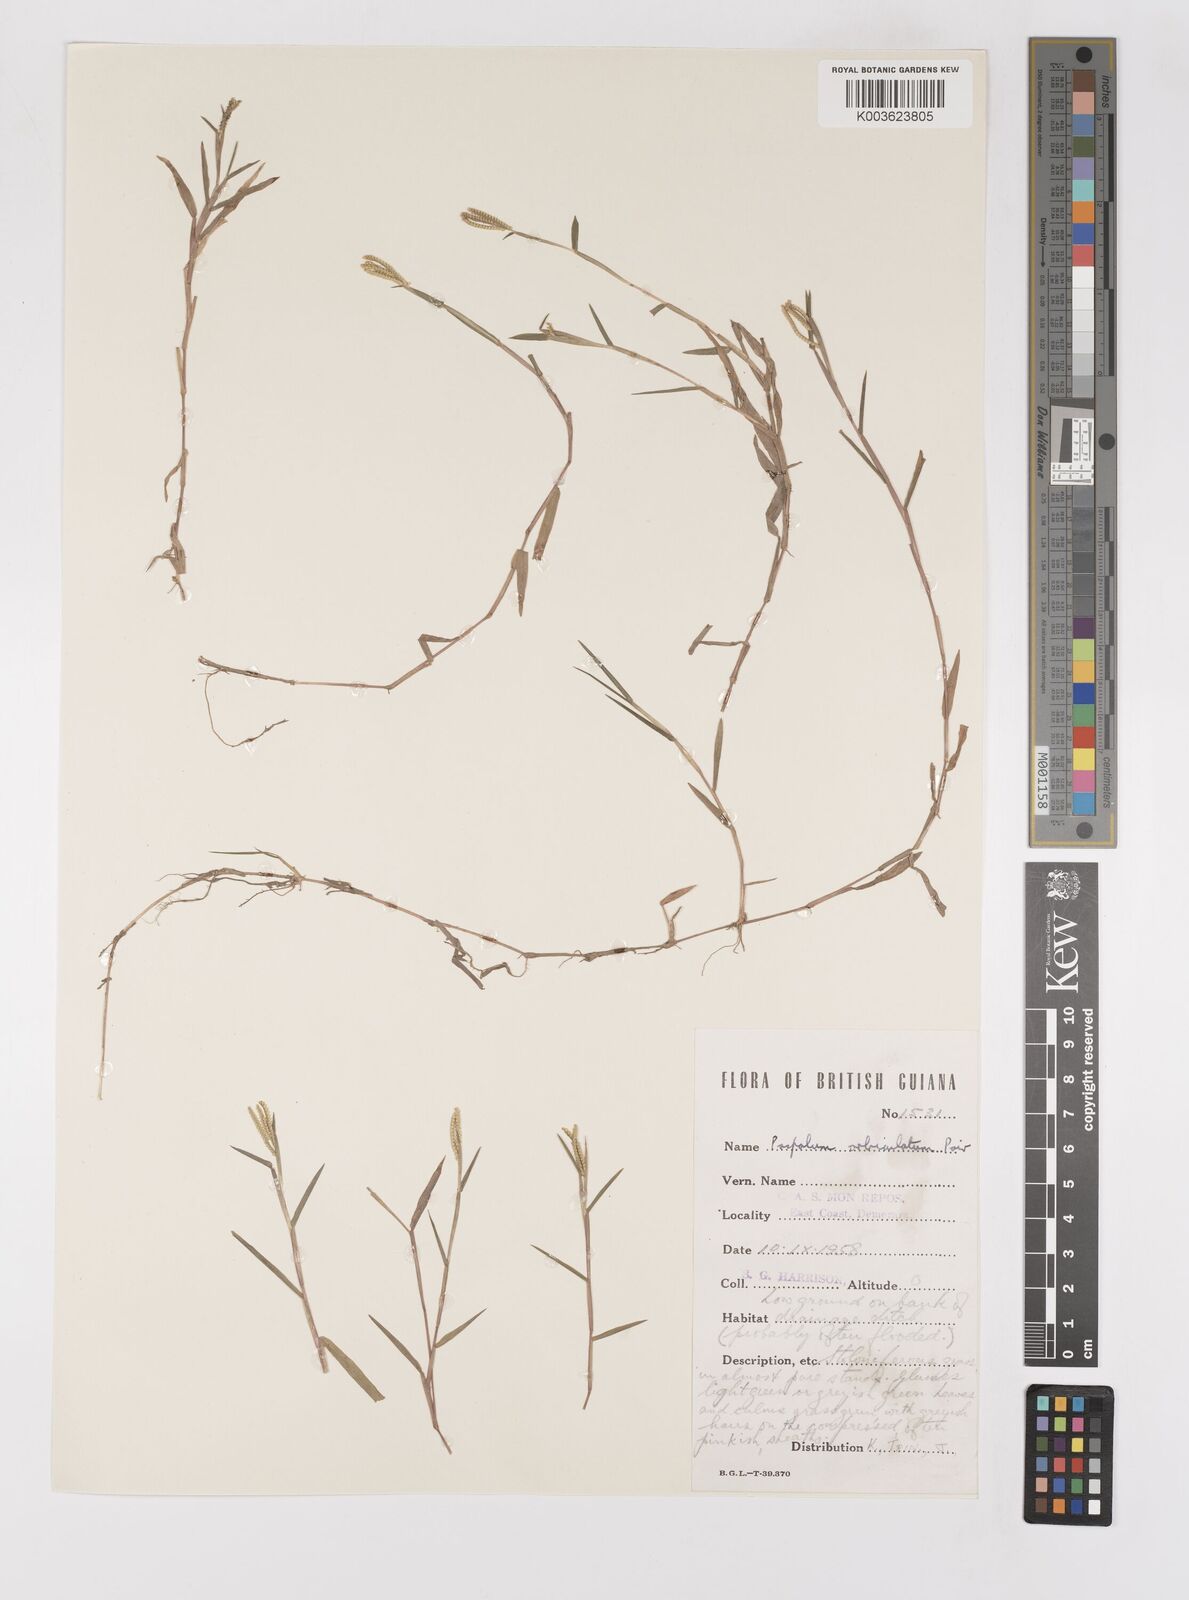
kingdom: Plantae
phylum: Tracheophyta
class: Liliopsida
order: Poales
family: Poaceae
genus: Paspalum
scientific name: Paspalum orbiculatum
